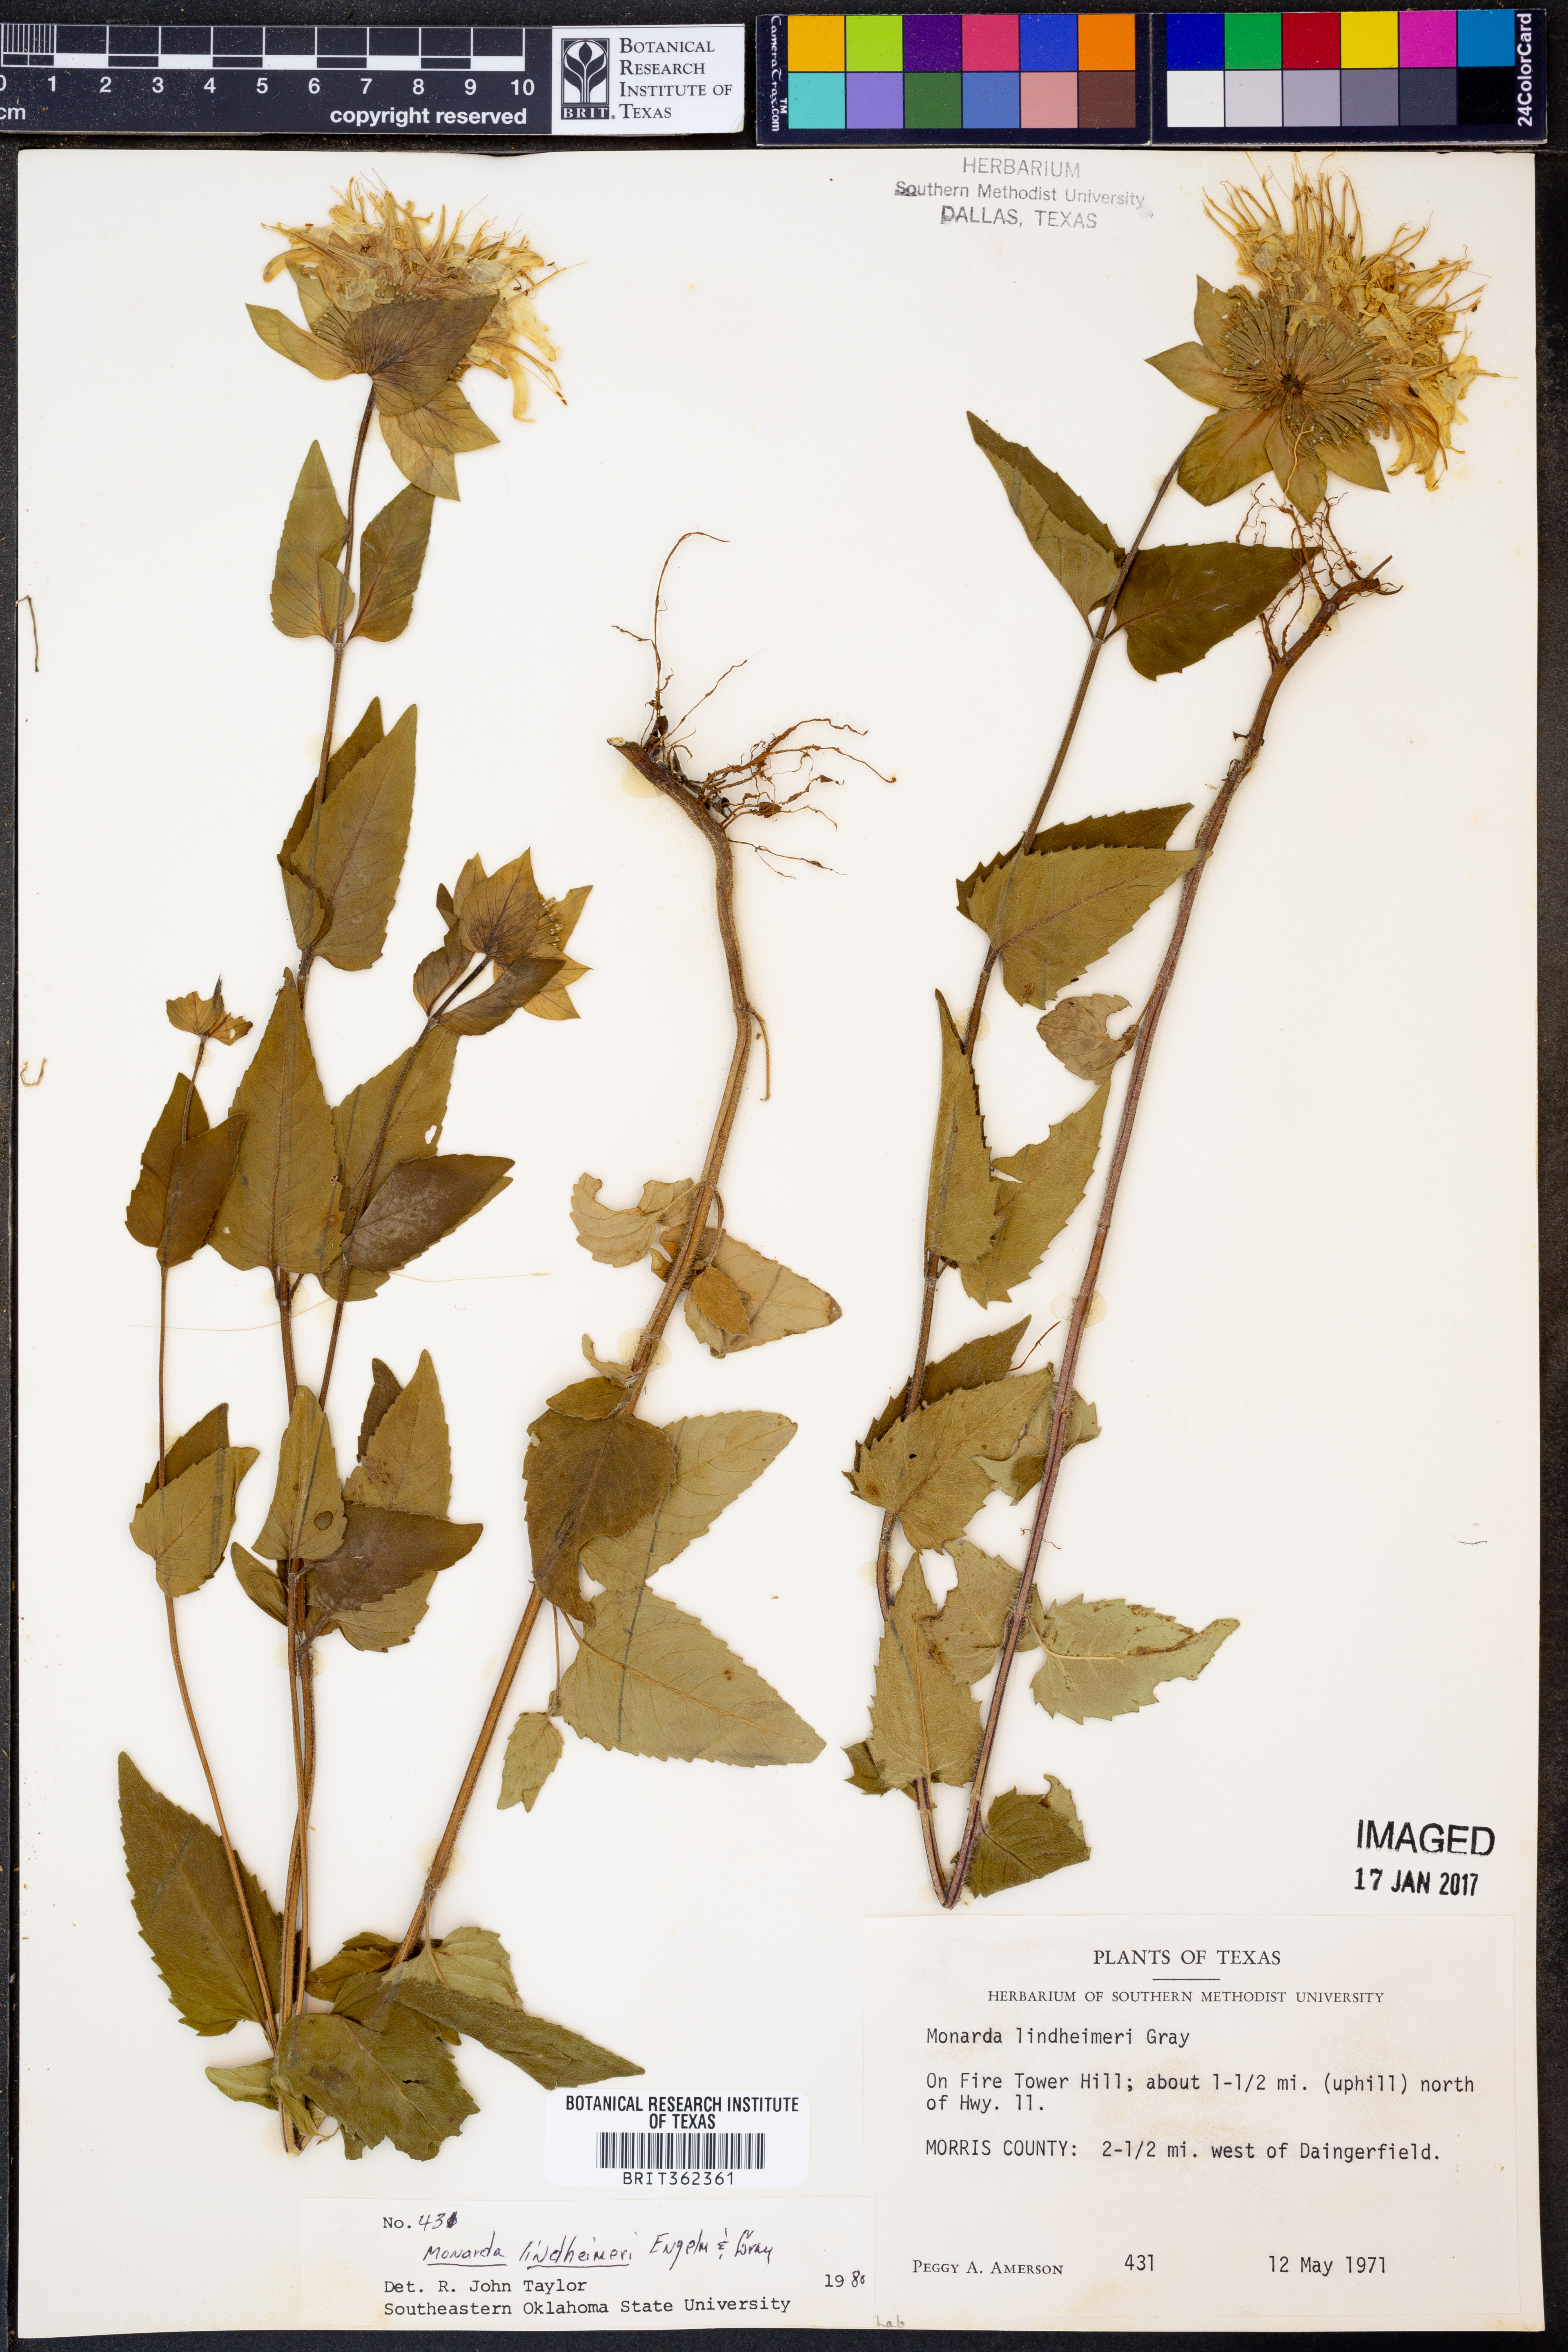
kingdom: Plantae
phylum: Tracheophyta
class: Magnoliopsida
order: Lamiales
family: Lamiaceae
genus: Monarda
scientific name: Monarda lindheimeri
